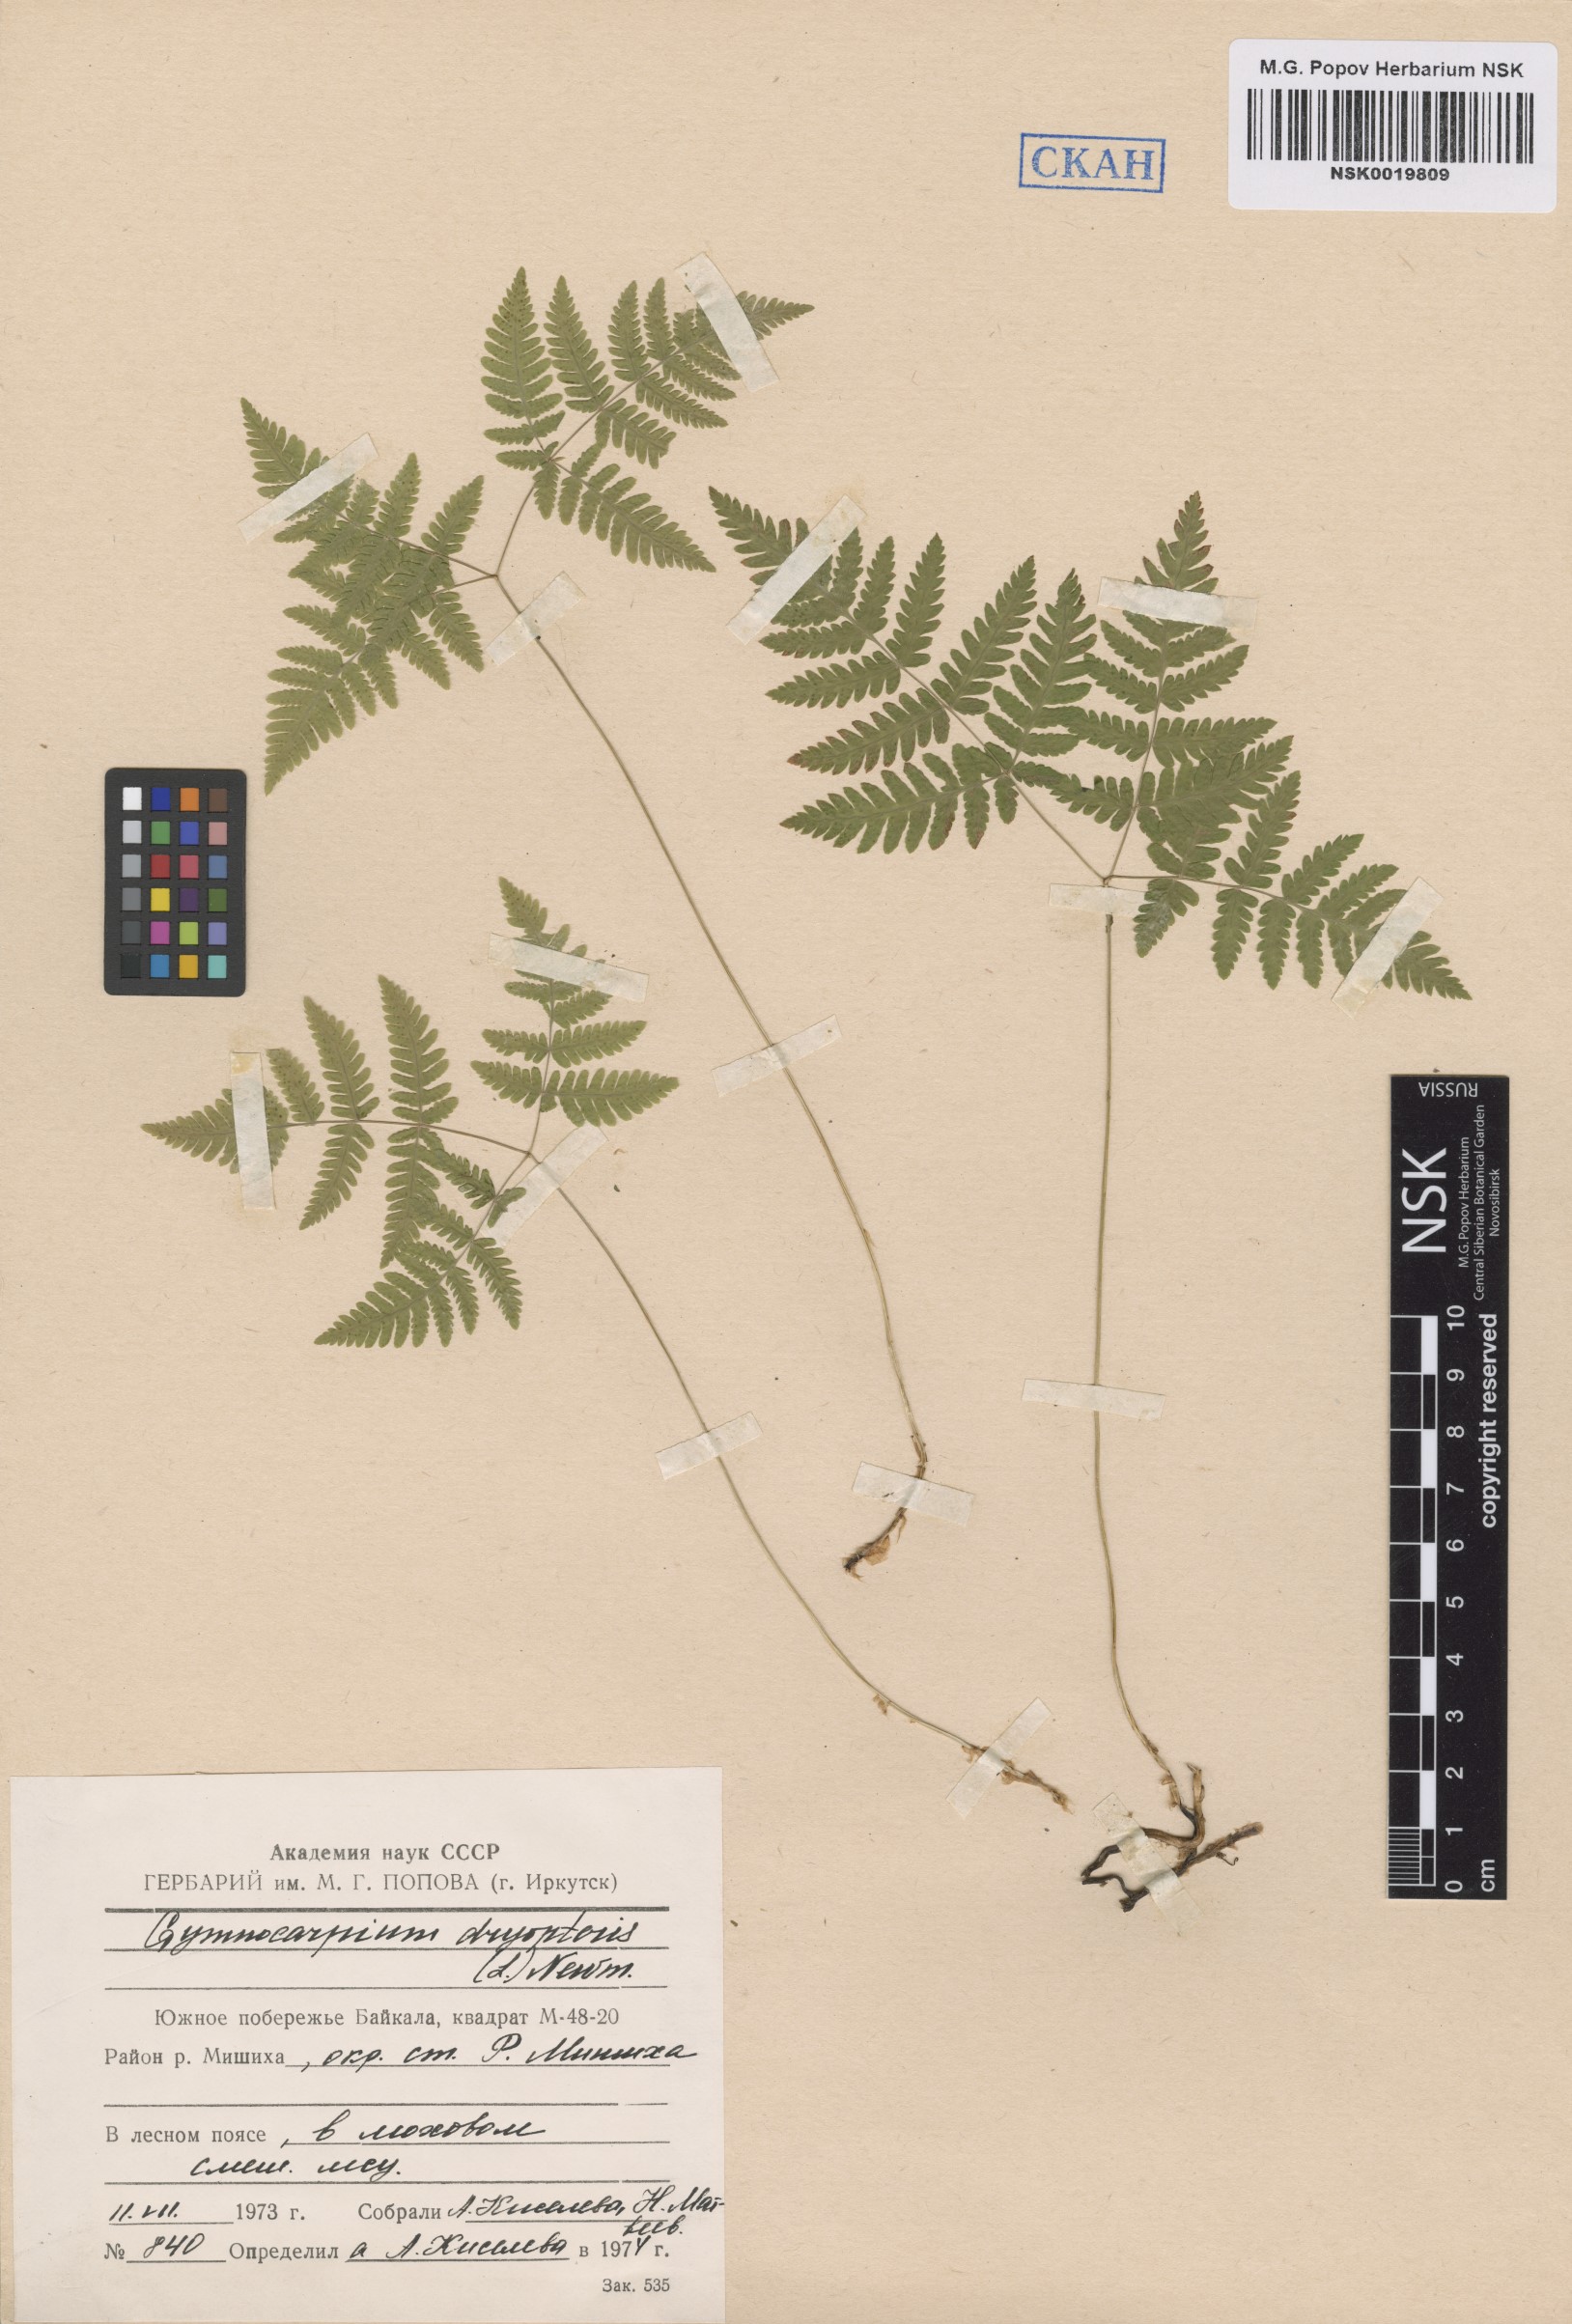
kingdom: Plantae
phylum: Tracheophyta
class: Polypodiopsida
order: Polypodiales
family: Cystopteridaceae
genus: Gymnocarpium
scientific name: Gymnocarpium dryopteris
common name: Oak fern
